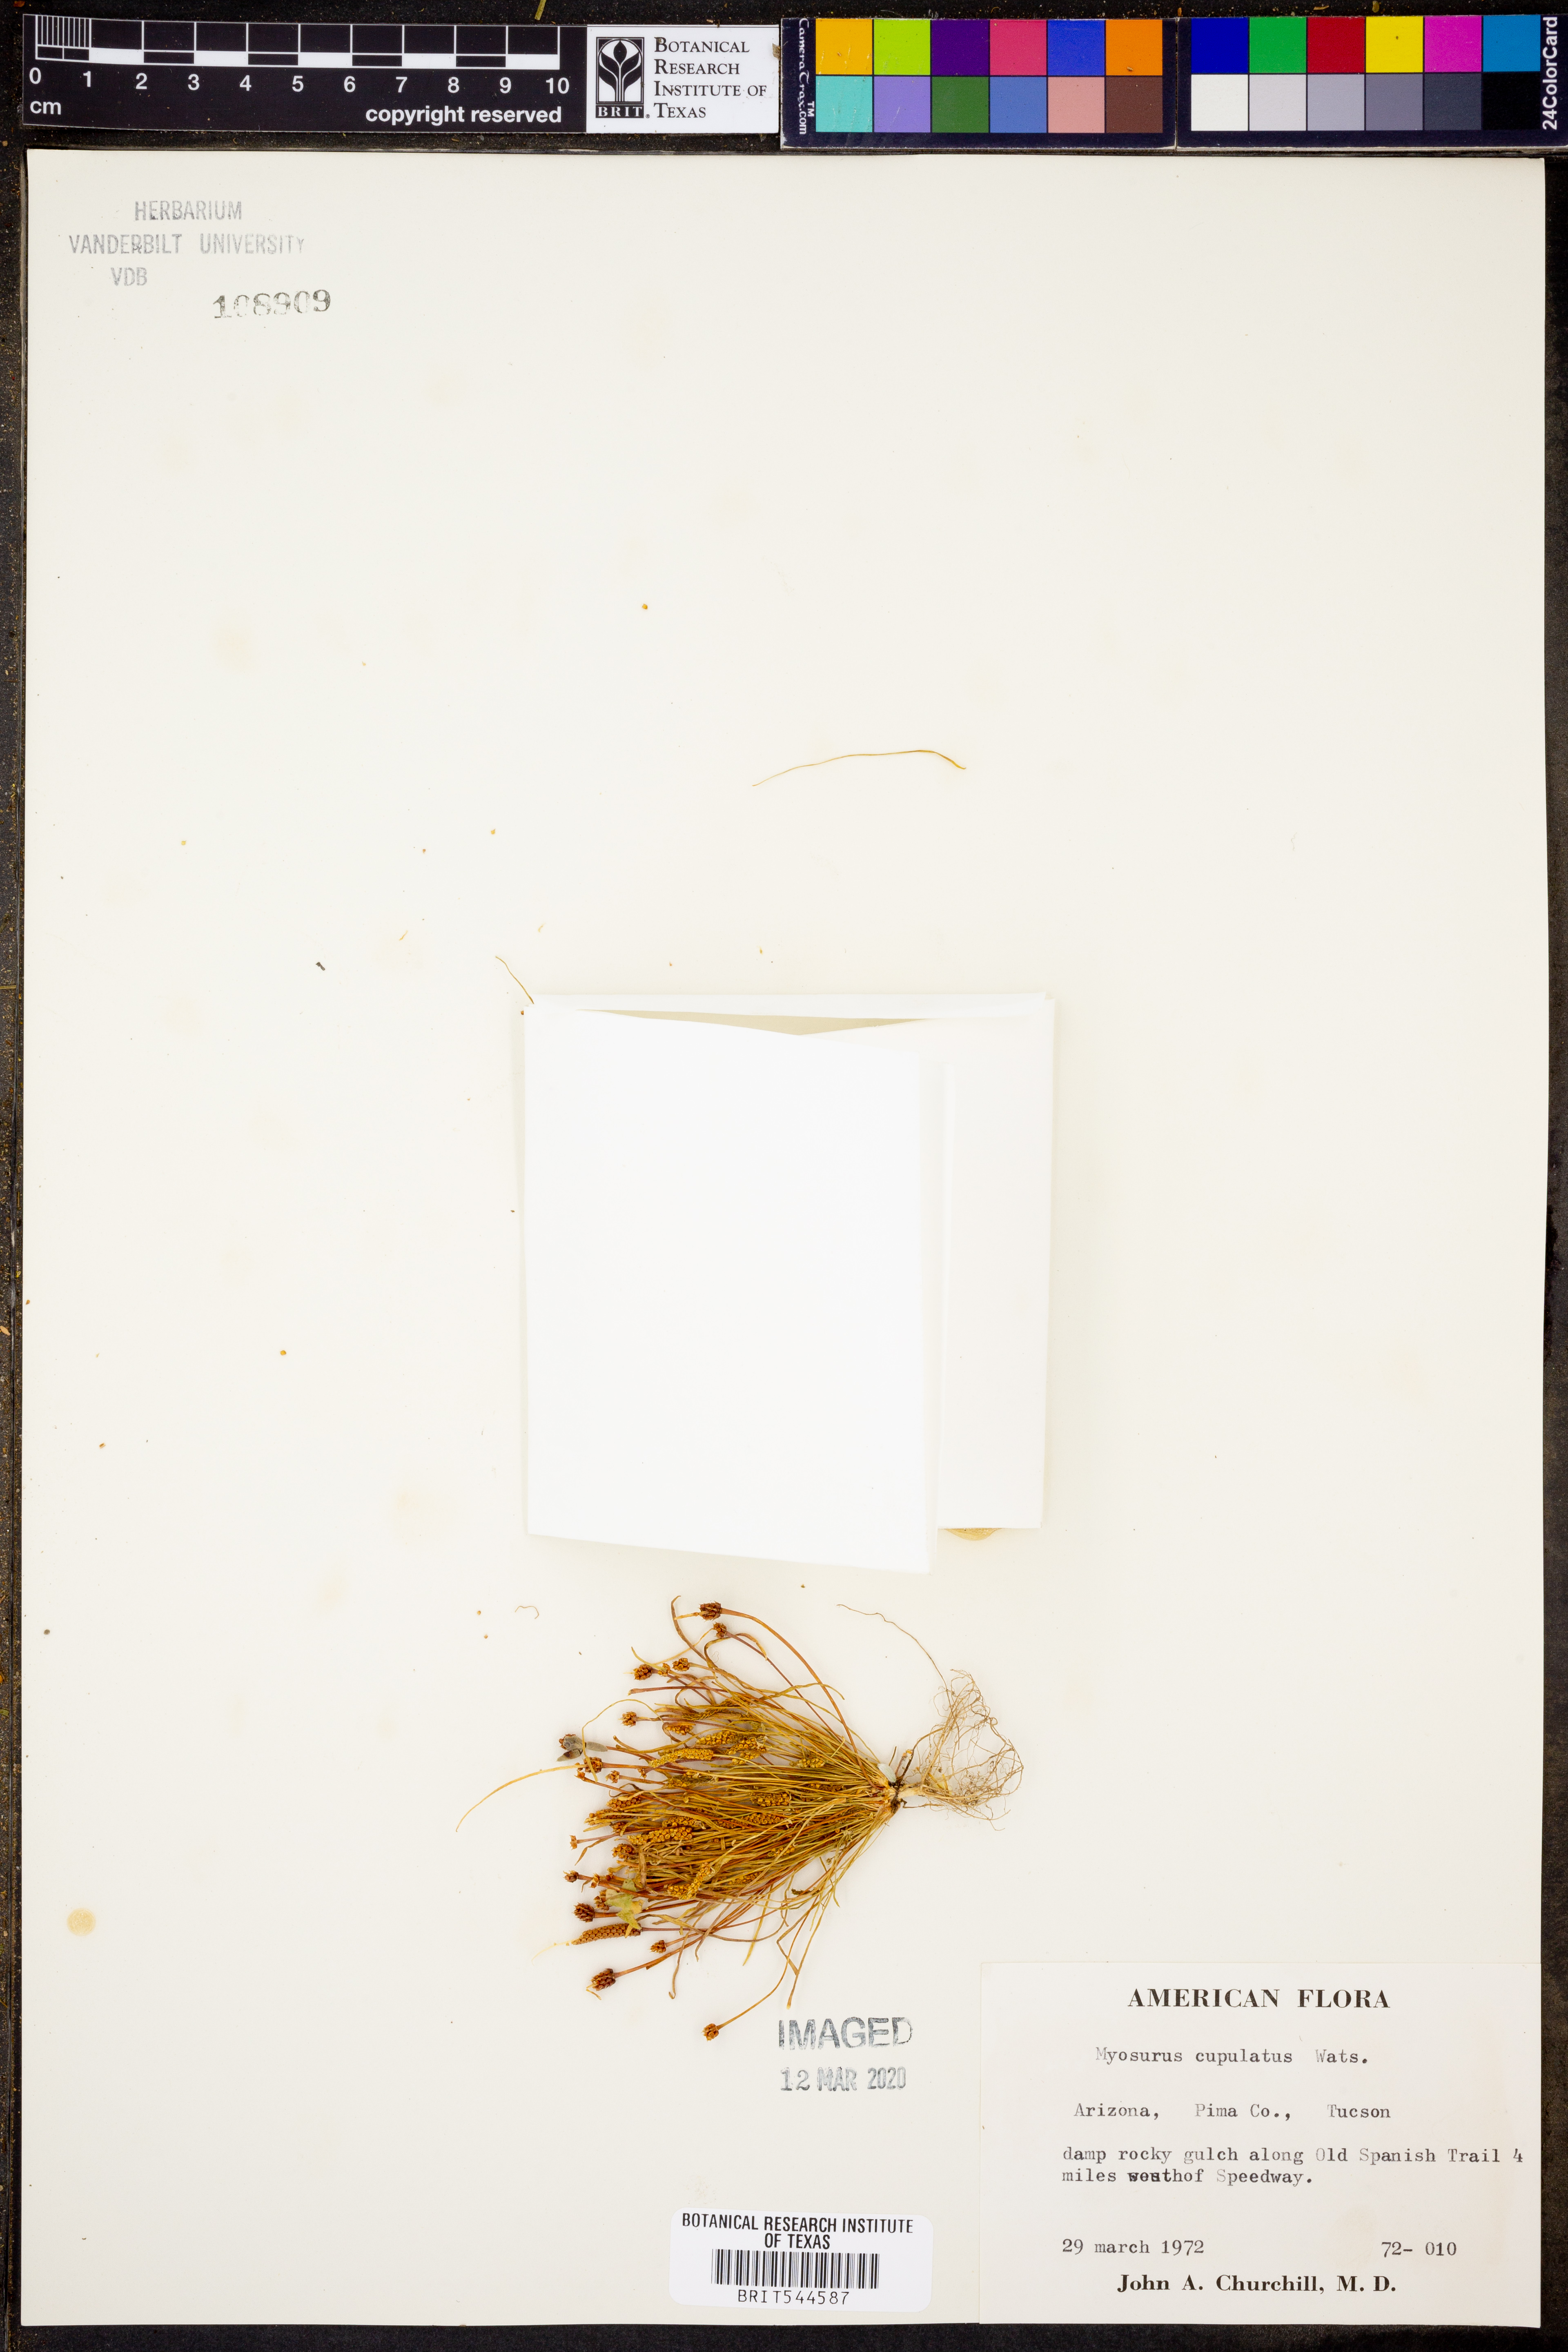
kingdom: Plantae
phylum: Tracheophyta
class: Magnoliopsida
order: Ranunculales
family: Ranunculaceae
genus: Myosurus
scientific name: Myosurus cupulatus
